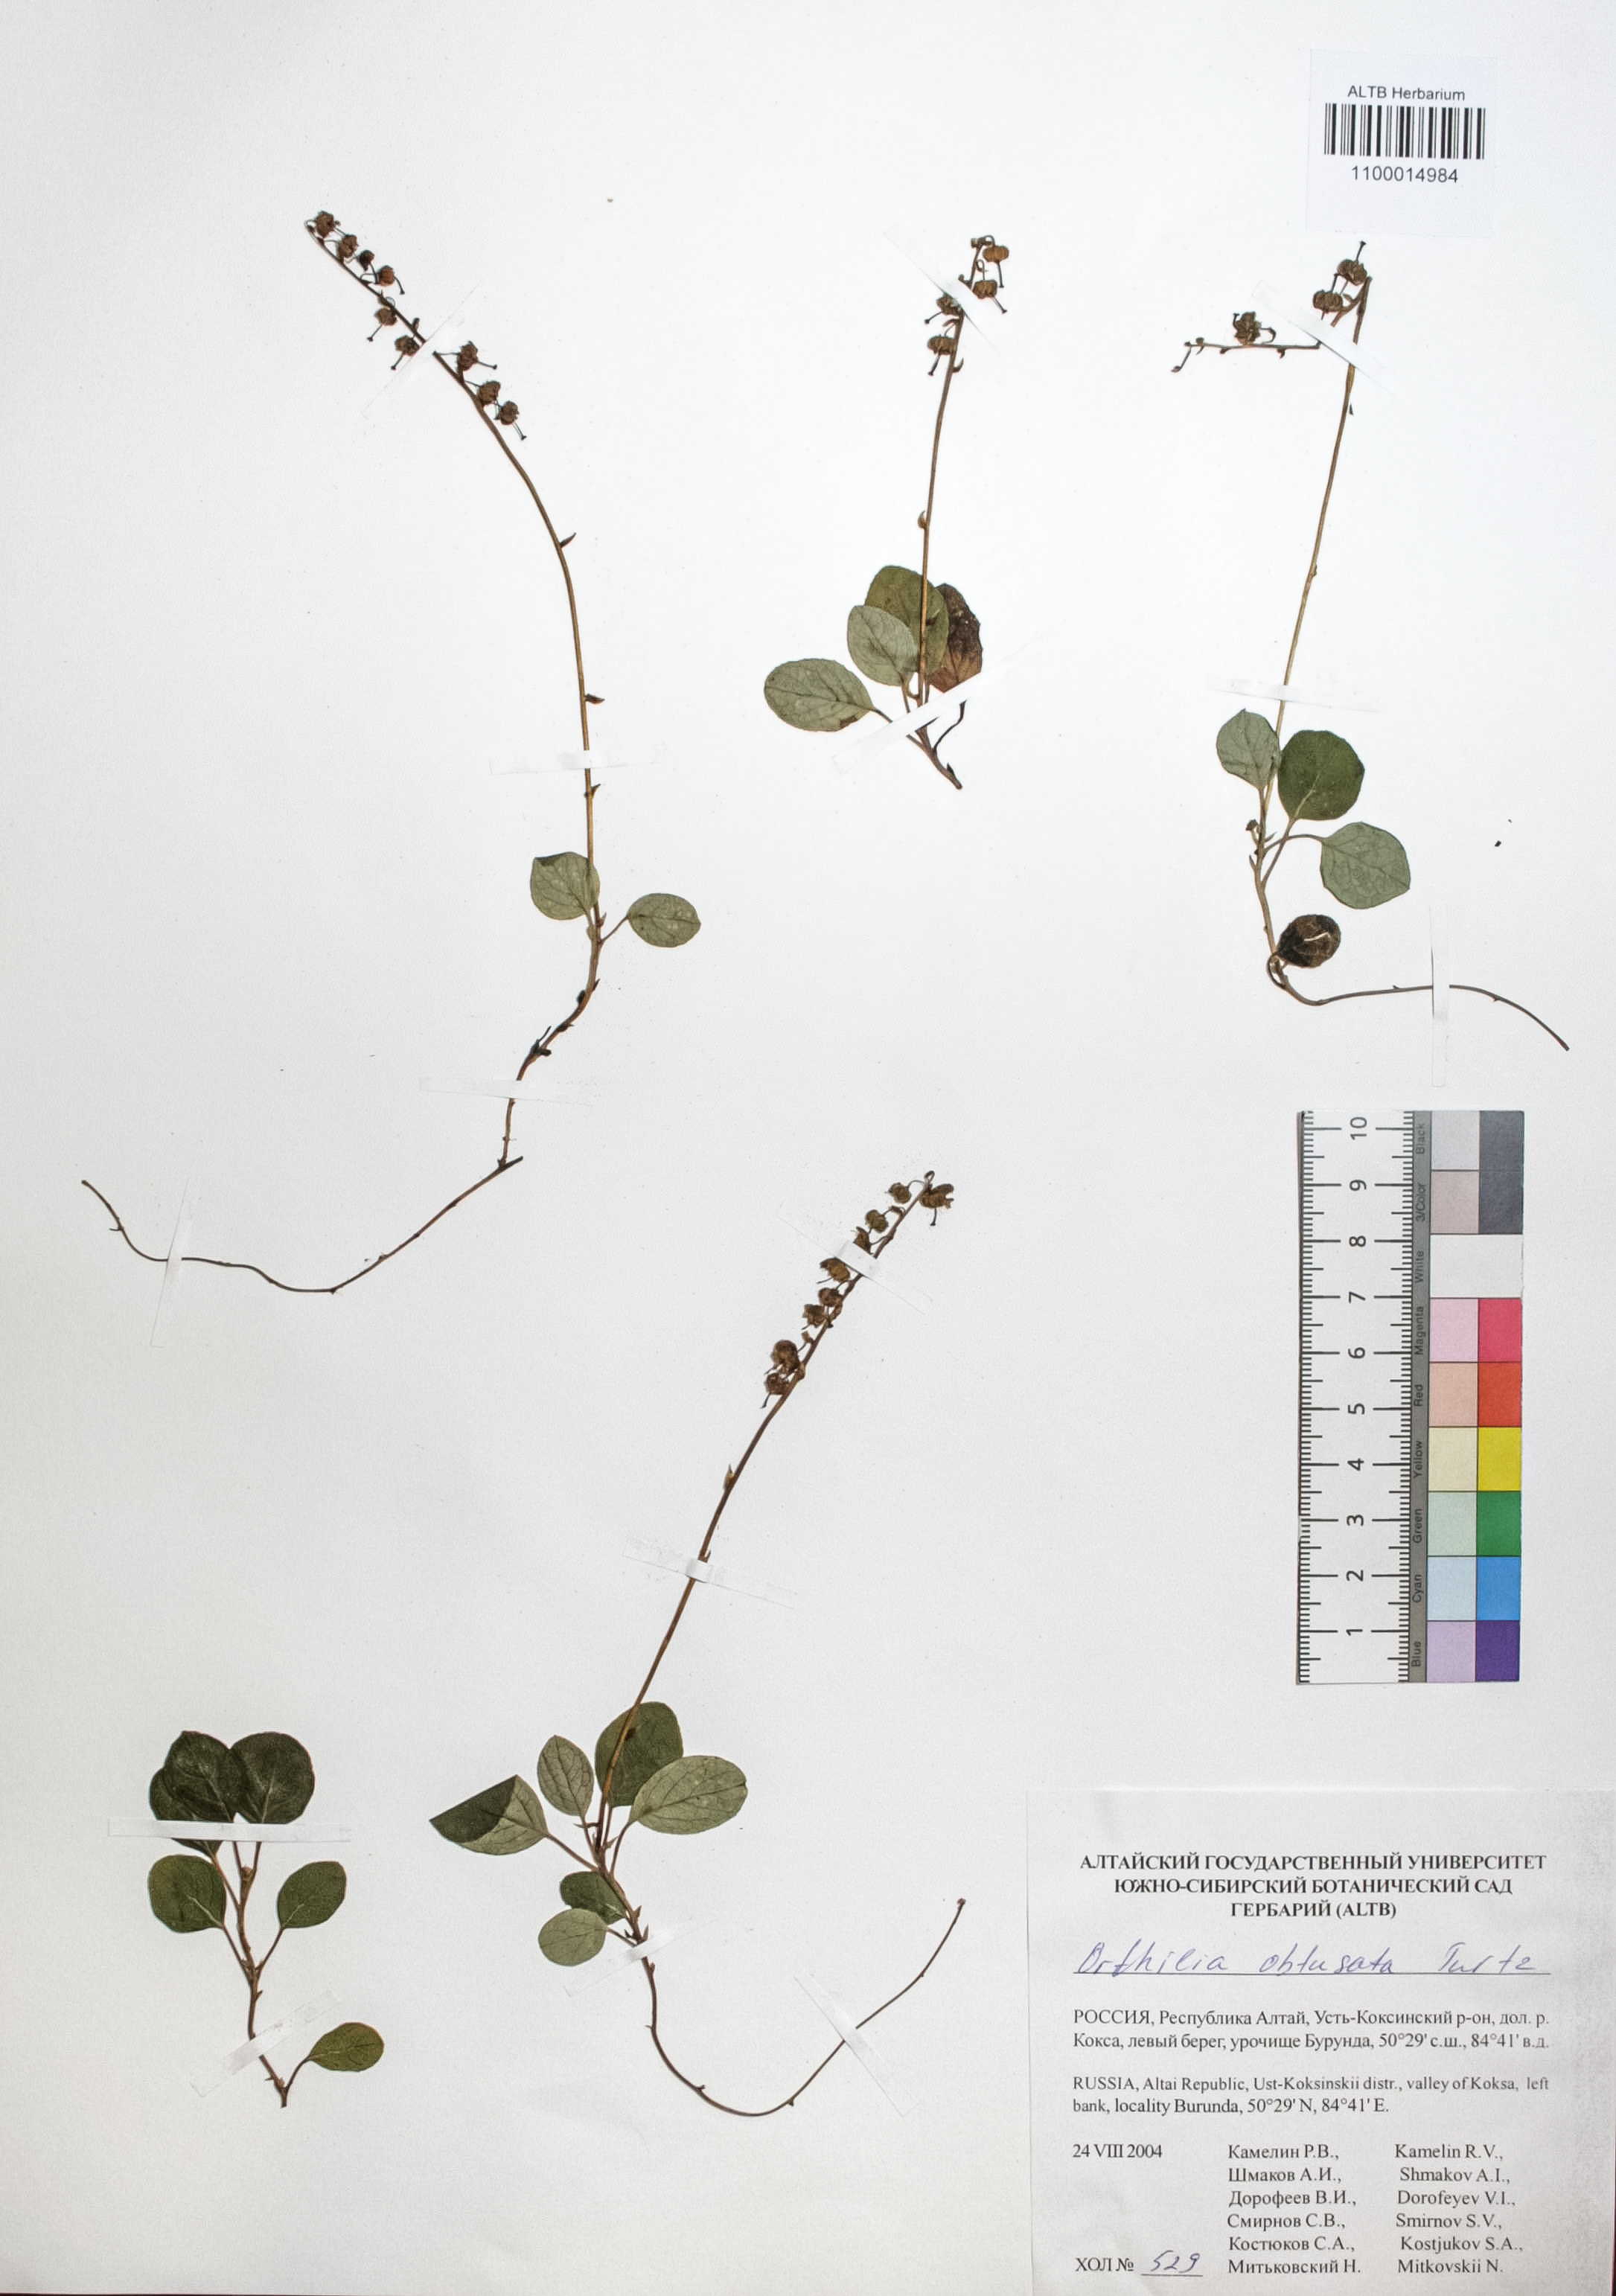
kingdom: Plantae
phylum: Tracheophyta
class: Magnoliopsida
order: Ericales
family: Ericaceae
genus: Orthilia
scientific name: Orthilia secunda
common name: One-sided orthilia
